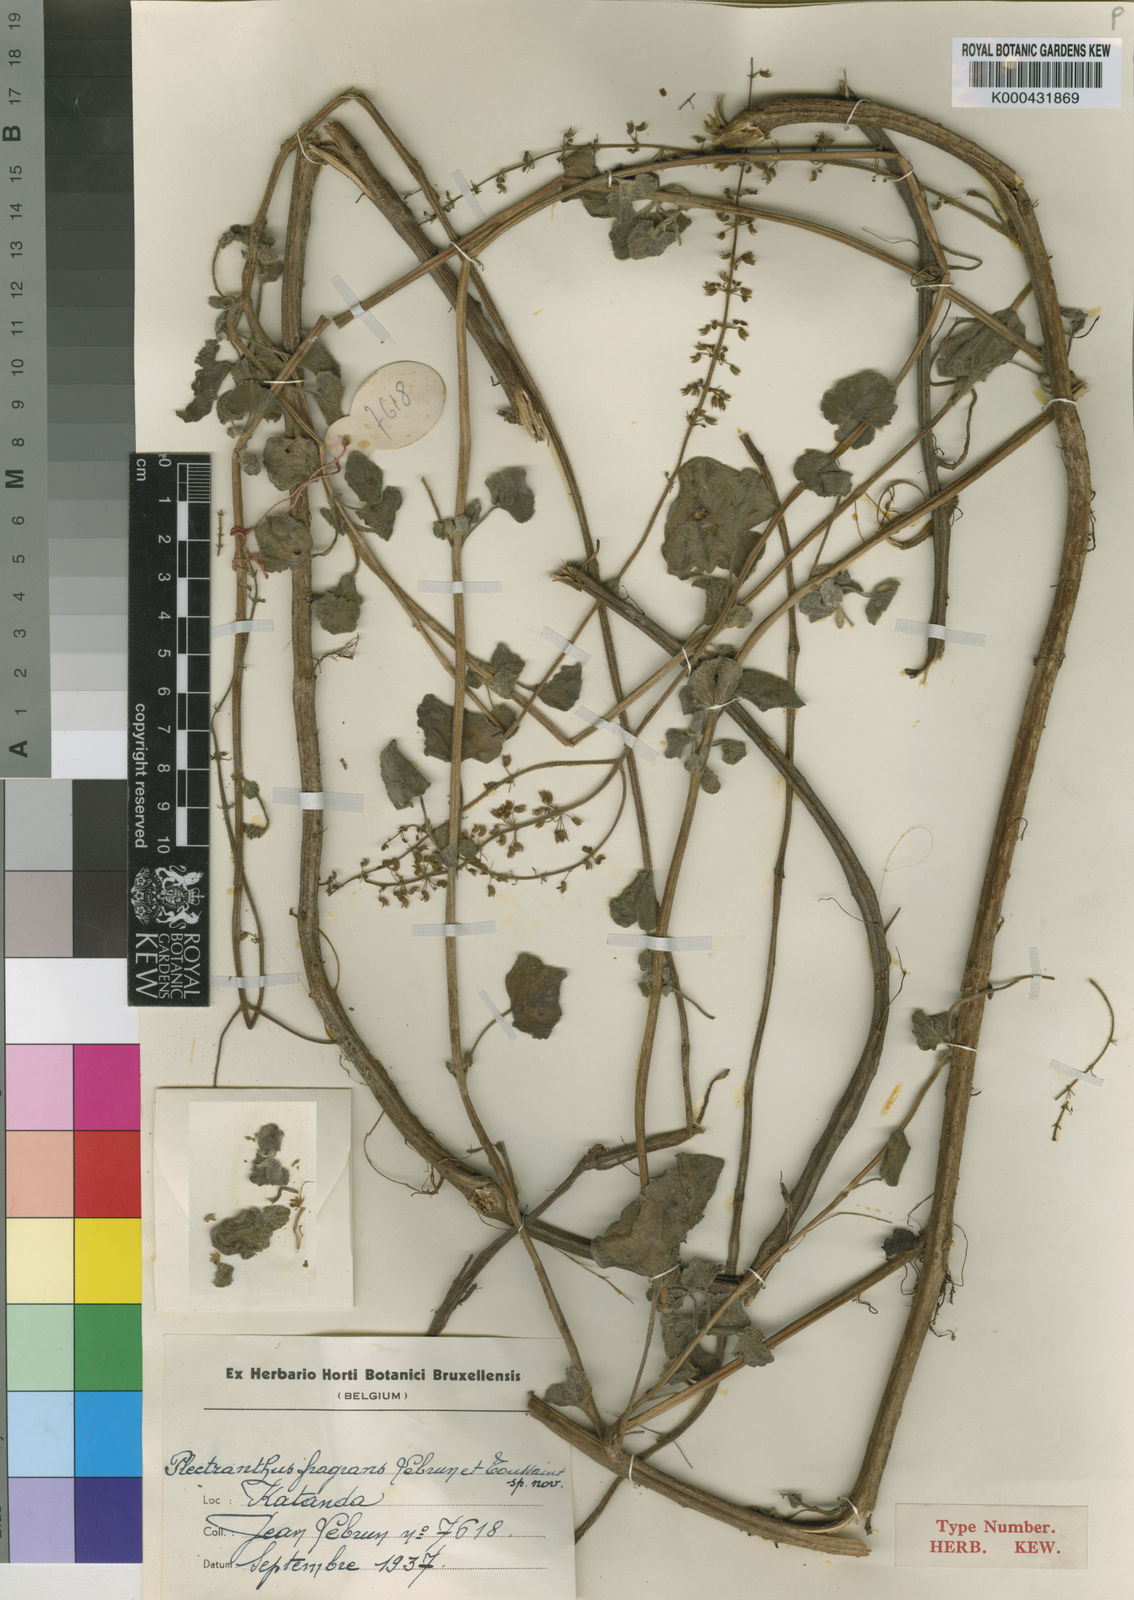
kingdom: Plantae
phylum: Tracheophyta
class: Magnoliopsida
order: Lamiales
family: Lamiaceae
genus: Coleus
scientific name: Coleus aegyptiacus
